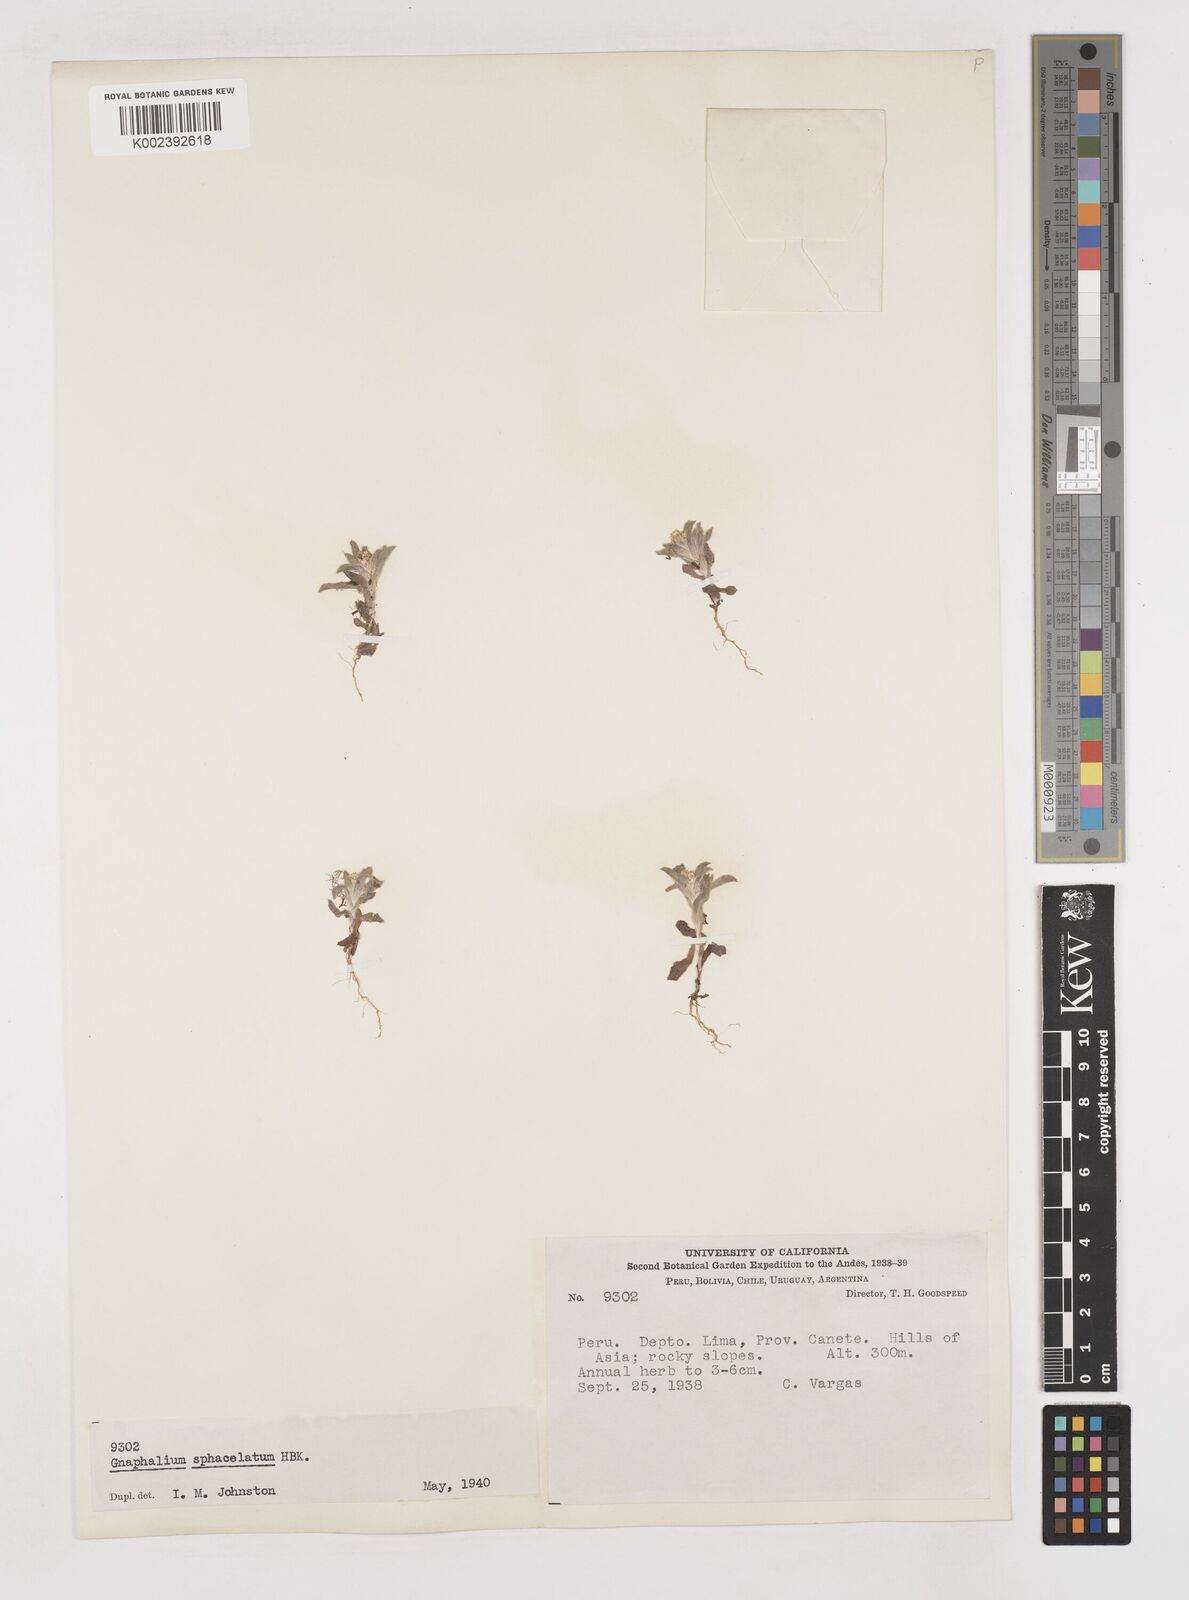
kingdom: Plantae
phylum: Tracheophyta
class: Magnoliopsida
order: Asterales
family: Asteraceae
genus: Gamochaeta
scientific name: Gamochaeta sphacelata
